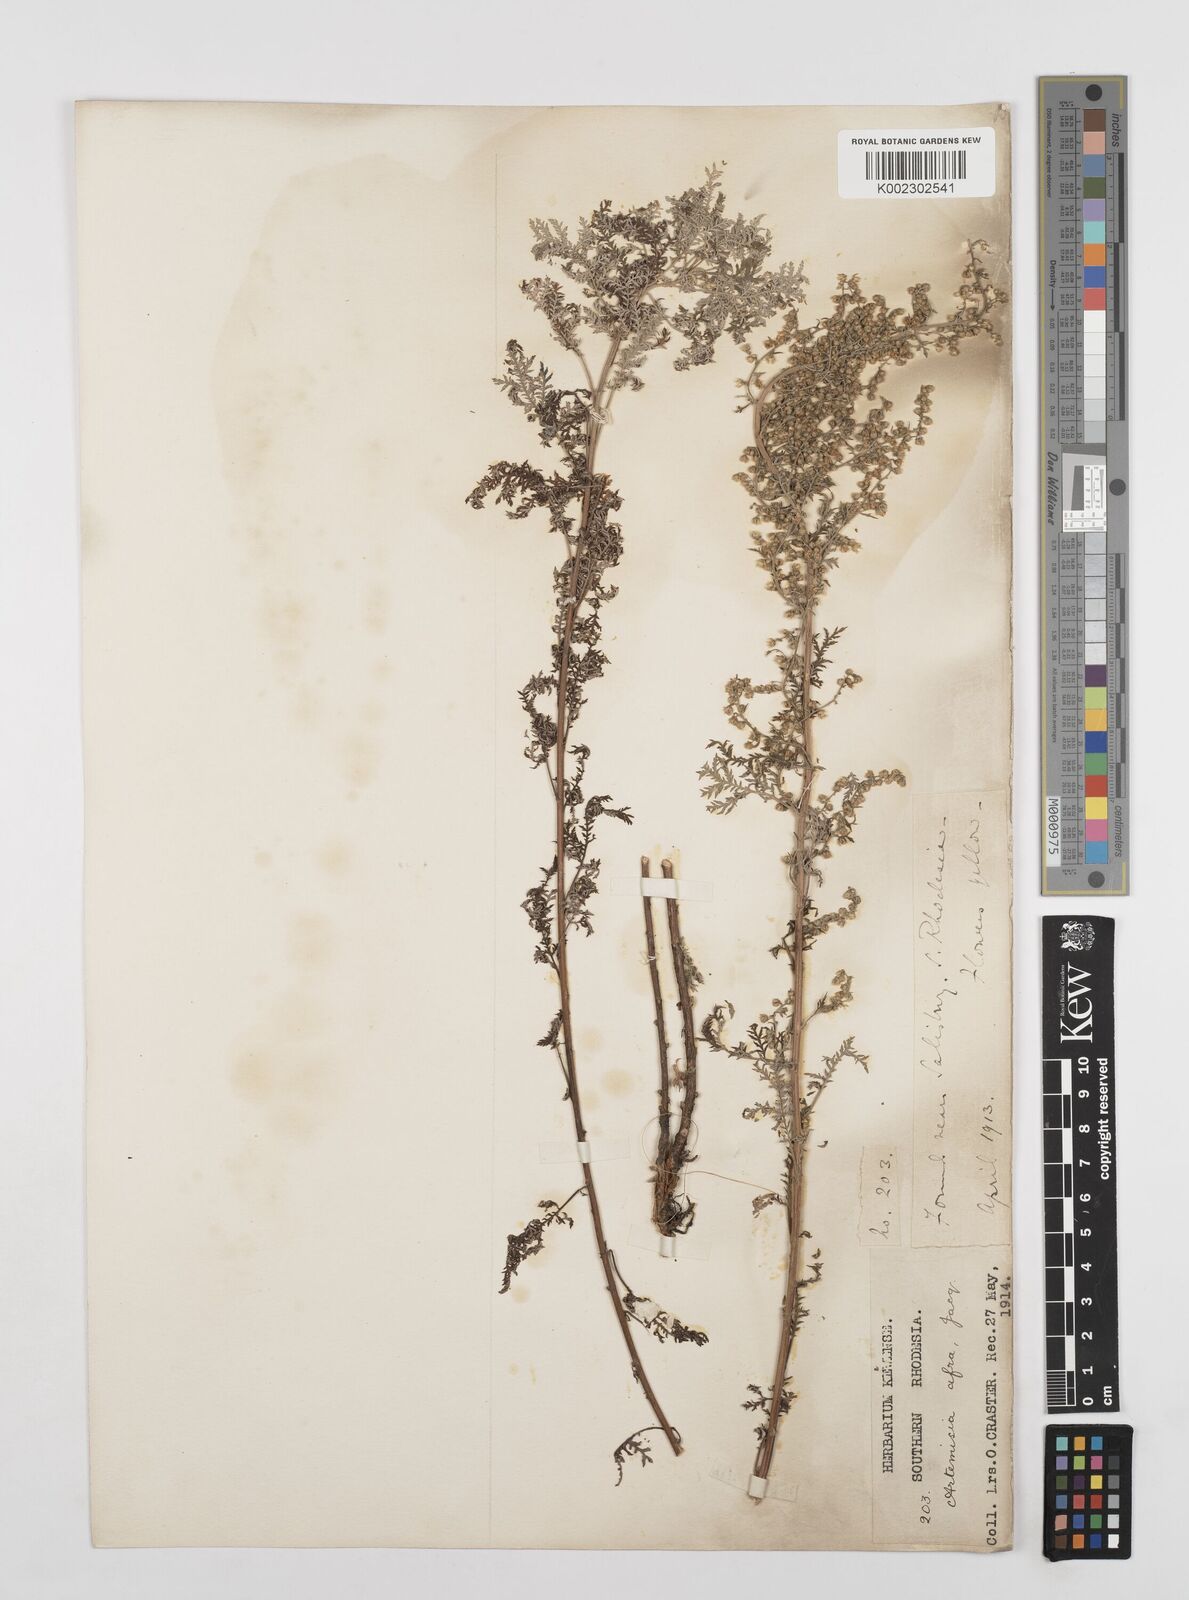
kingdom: Plantae
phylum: Tracheophyta
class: Magnoliopsida
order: Asterales
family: Asteraceae
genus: Artemisia
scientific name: Artemisia afra
